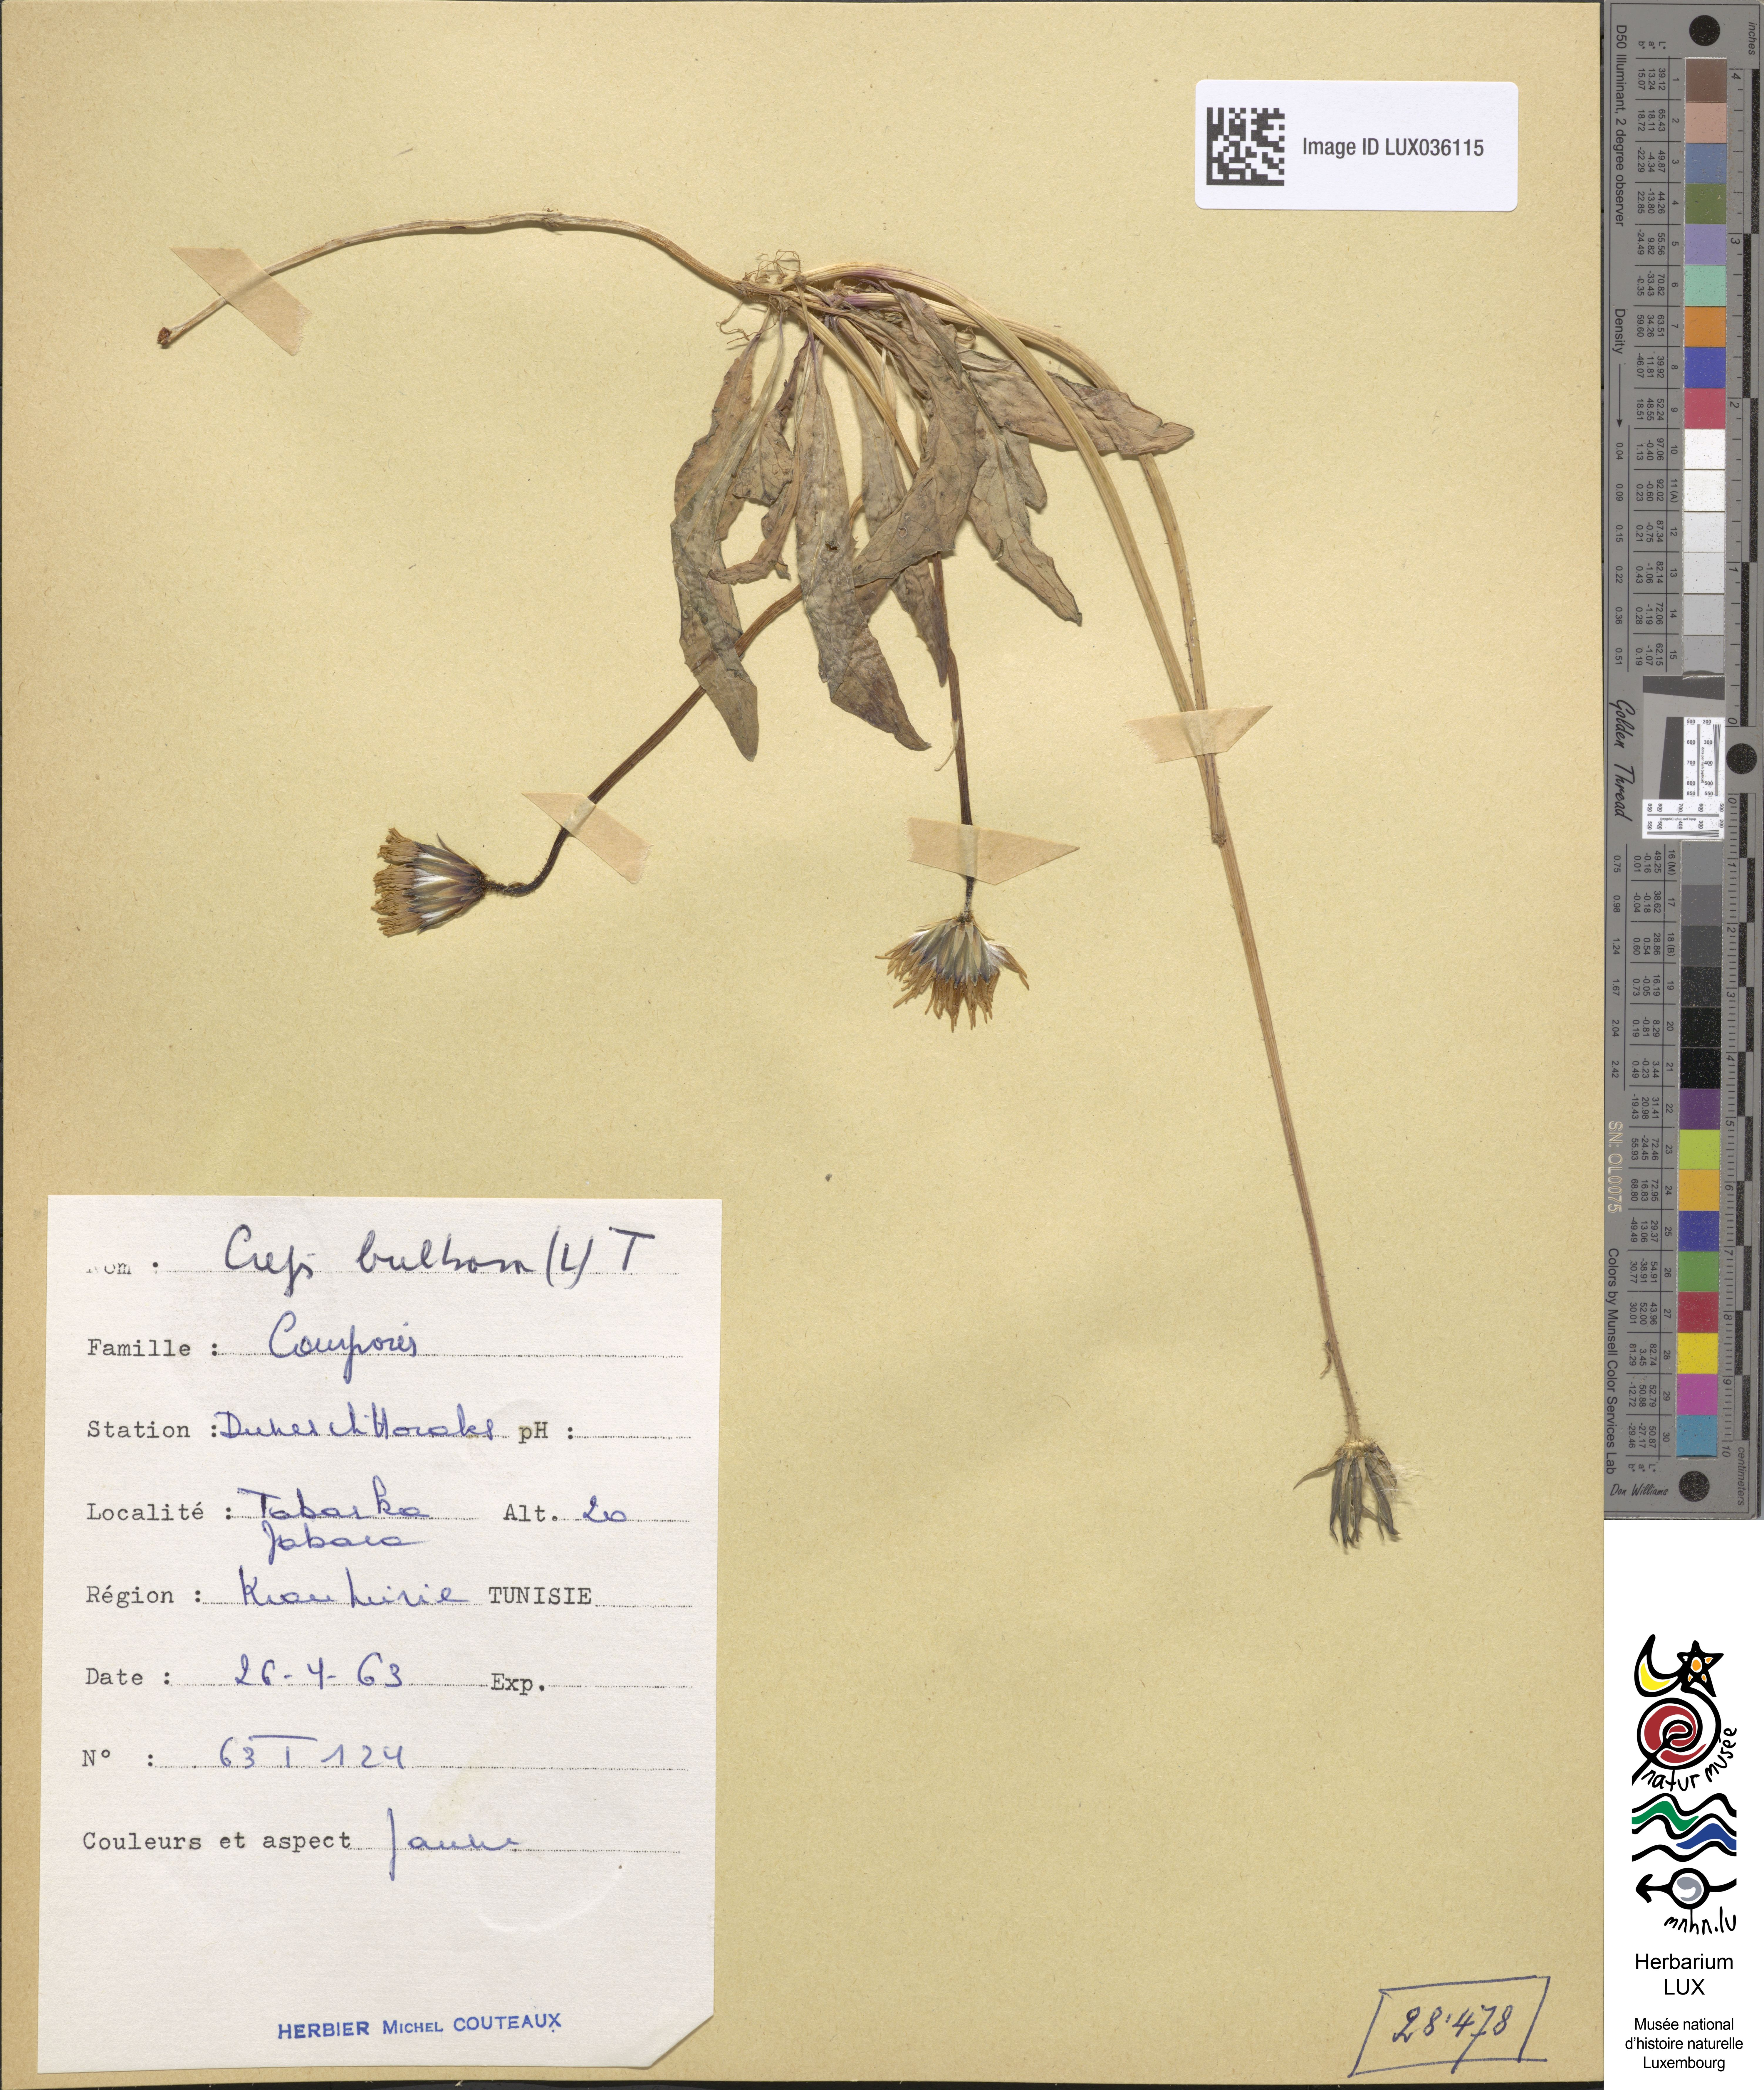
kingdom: Plantae
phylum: Tracheophyta
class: Magnoliopsida
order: Asterales
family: Asteraceae
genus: Aetheorhiza
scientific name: Aetheorhiza bulbosa
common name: Tuberous hawk's-beard
